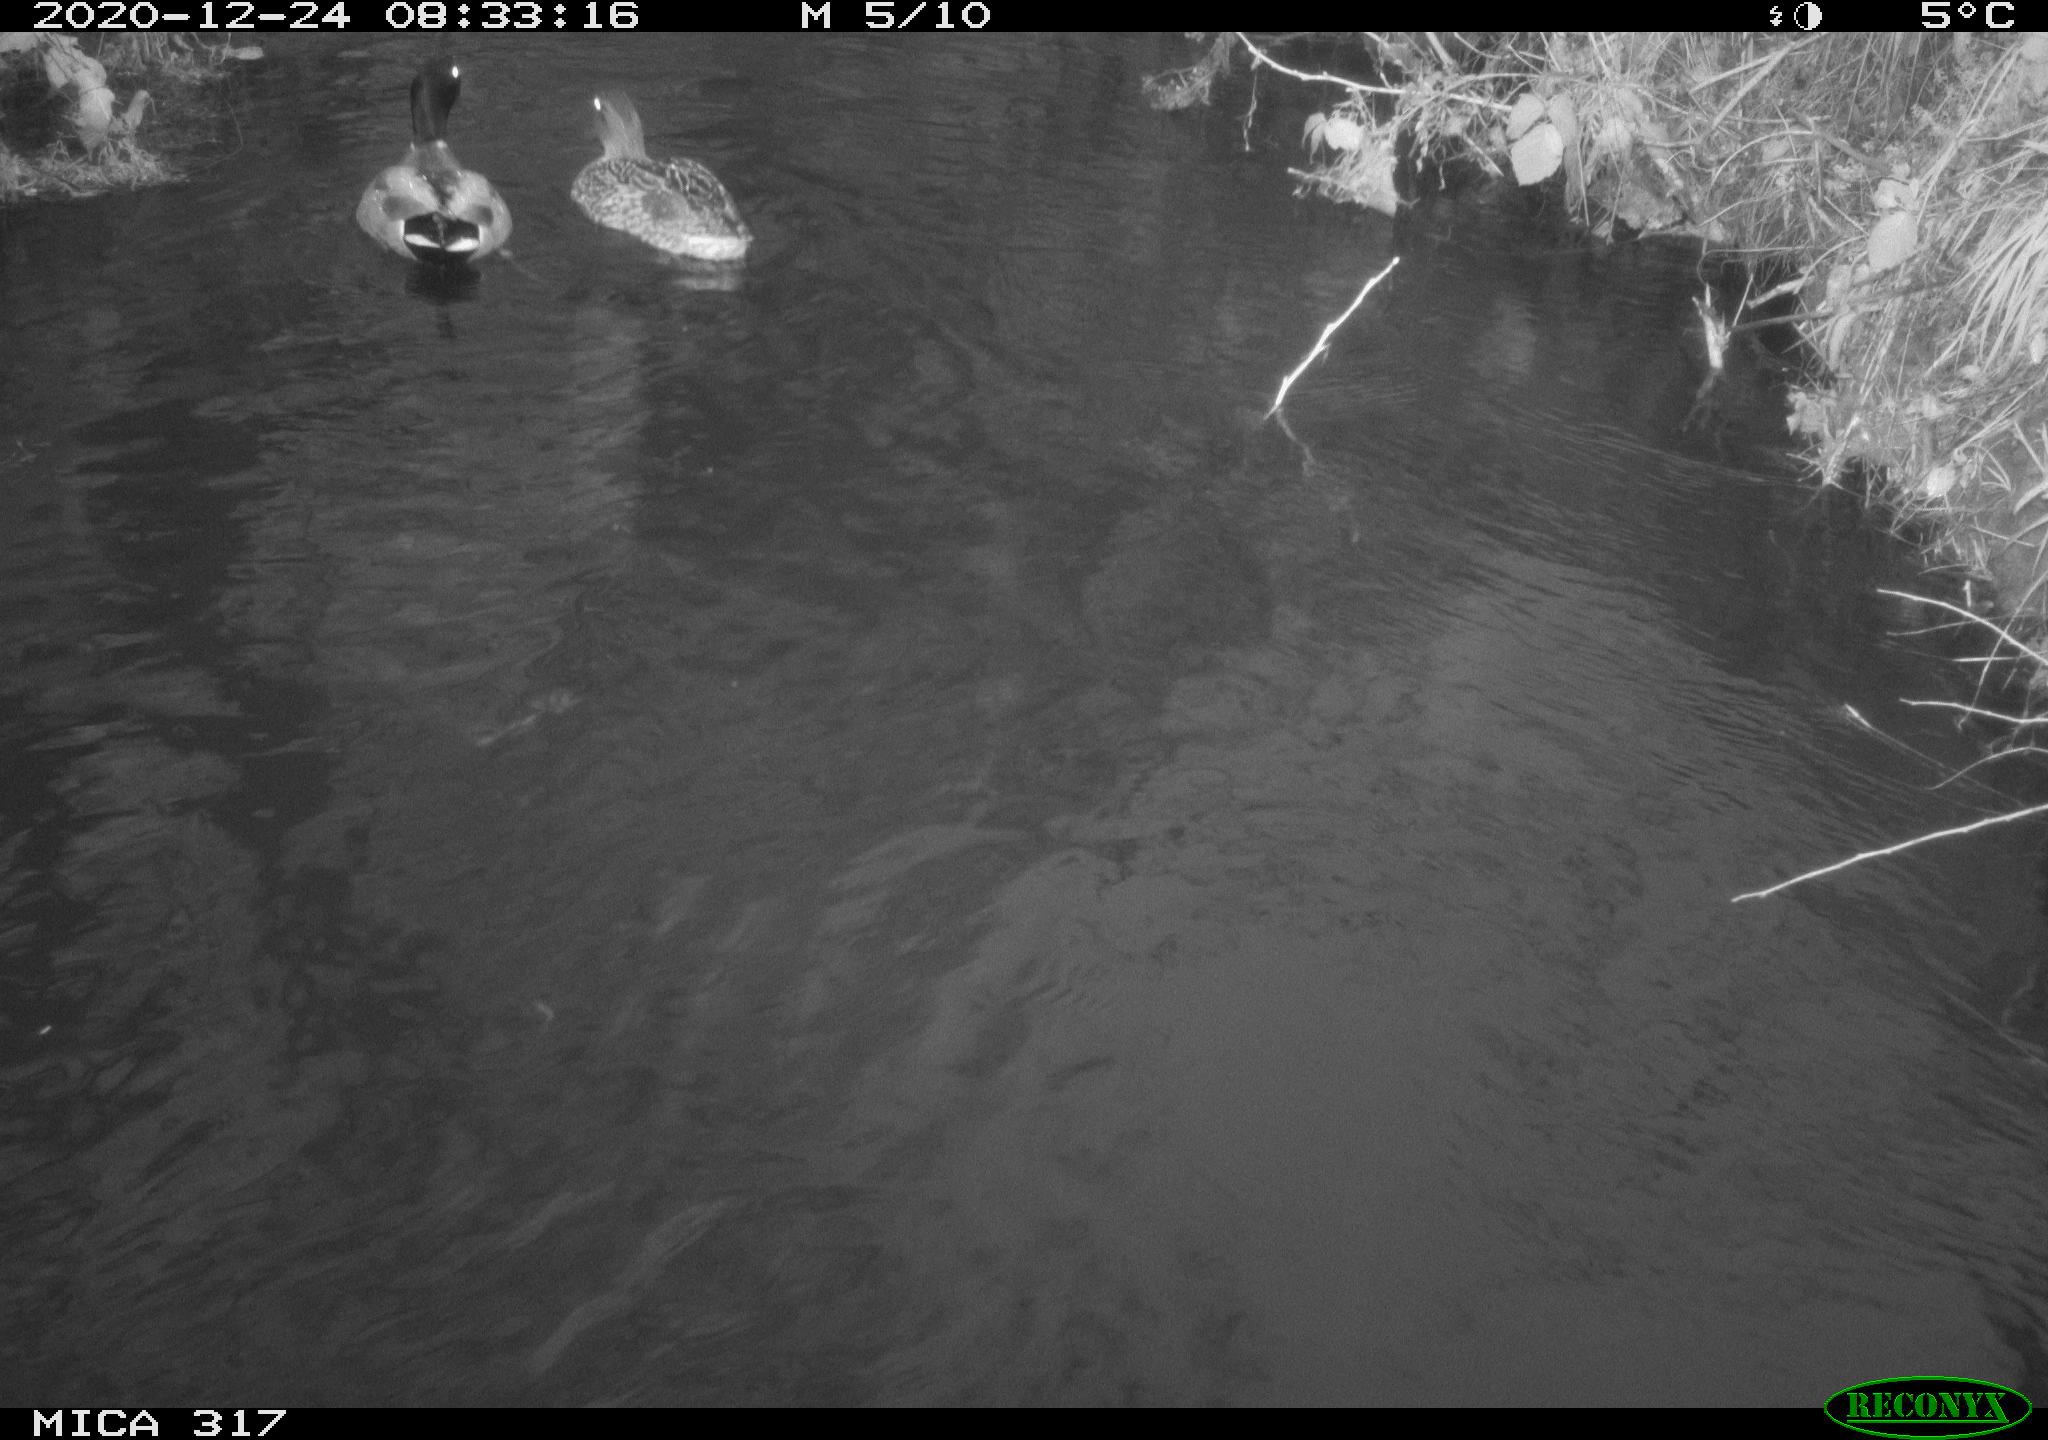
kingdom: Animalia
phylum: Chordata
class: Aves
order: Anseriformes
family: Anatidae
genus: Anas
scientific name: Anas platyrhynchos
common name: Mallard
